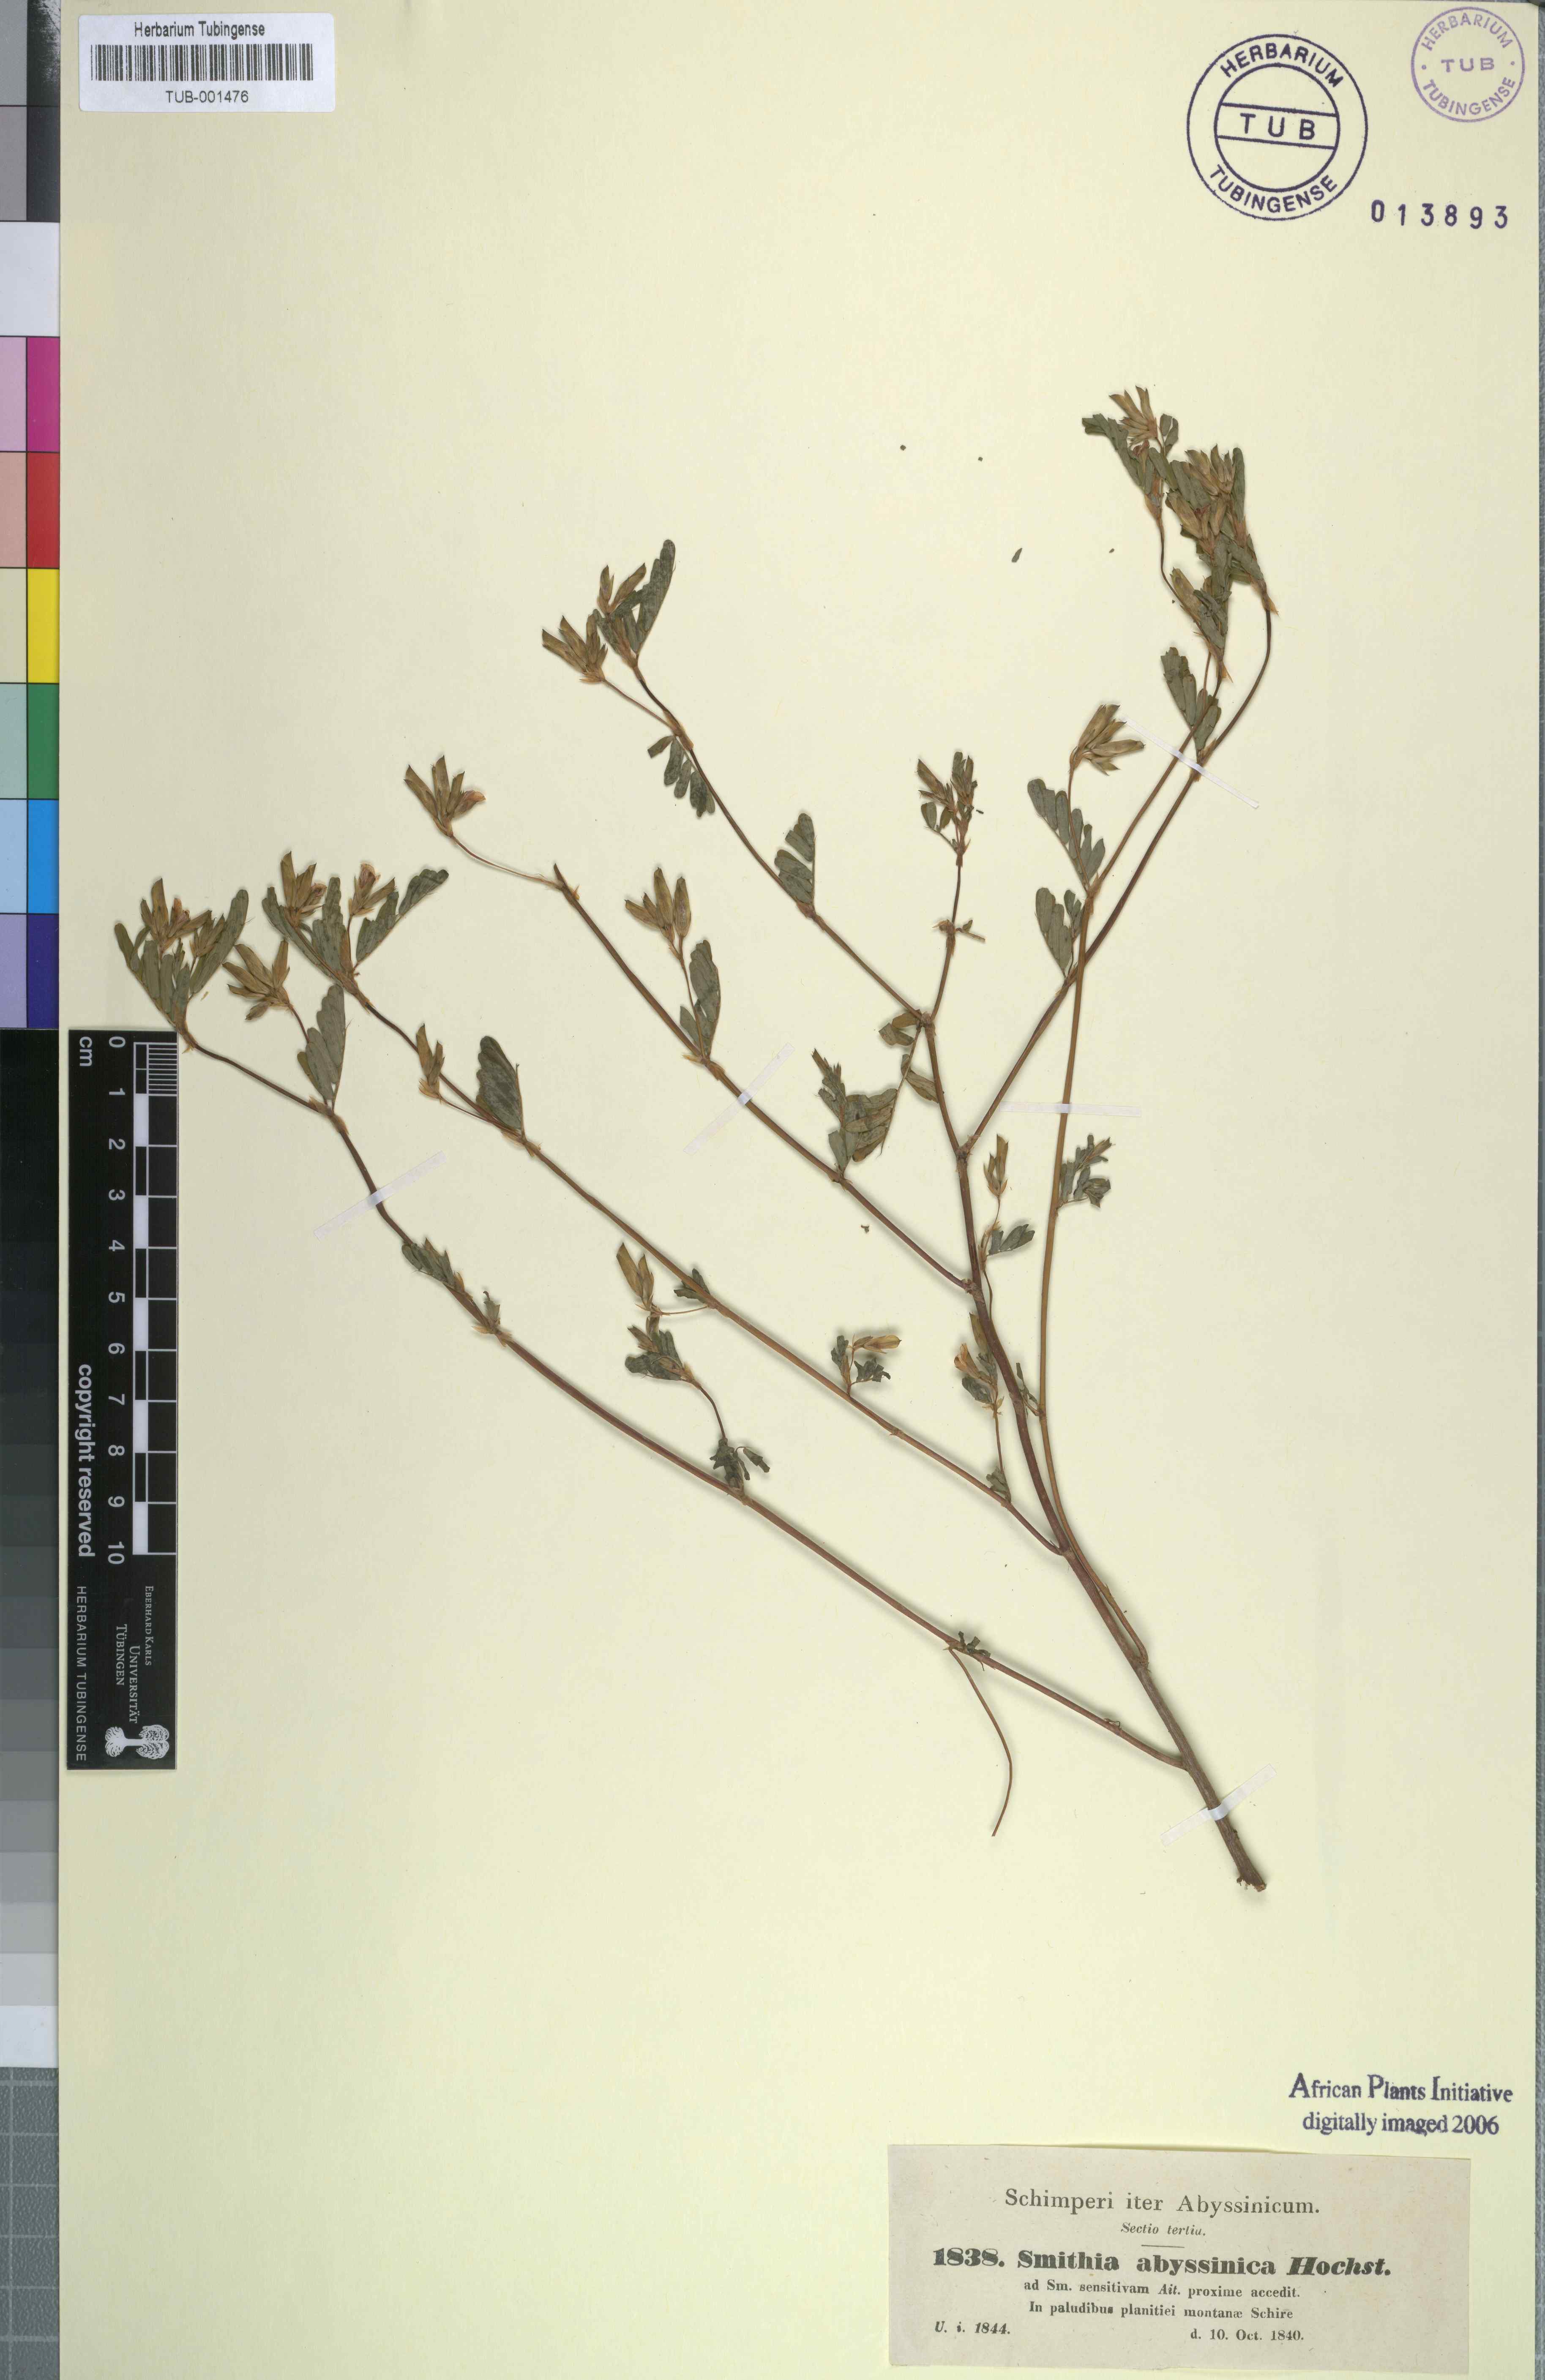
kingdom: Plantae
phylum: Tracheophyta
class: Magnoliopsida
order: Fabales
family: Fabaceae
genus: Smithia
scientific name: Smithia sensitiva
